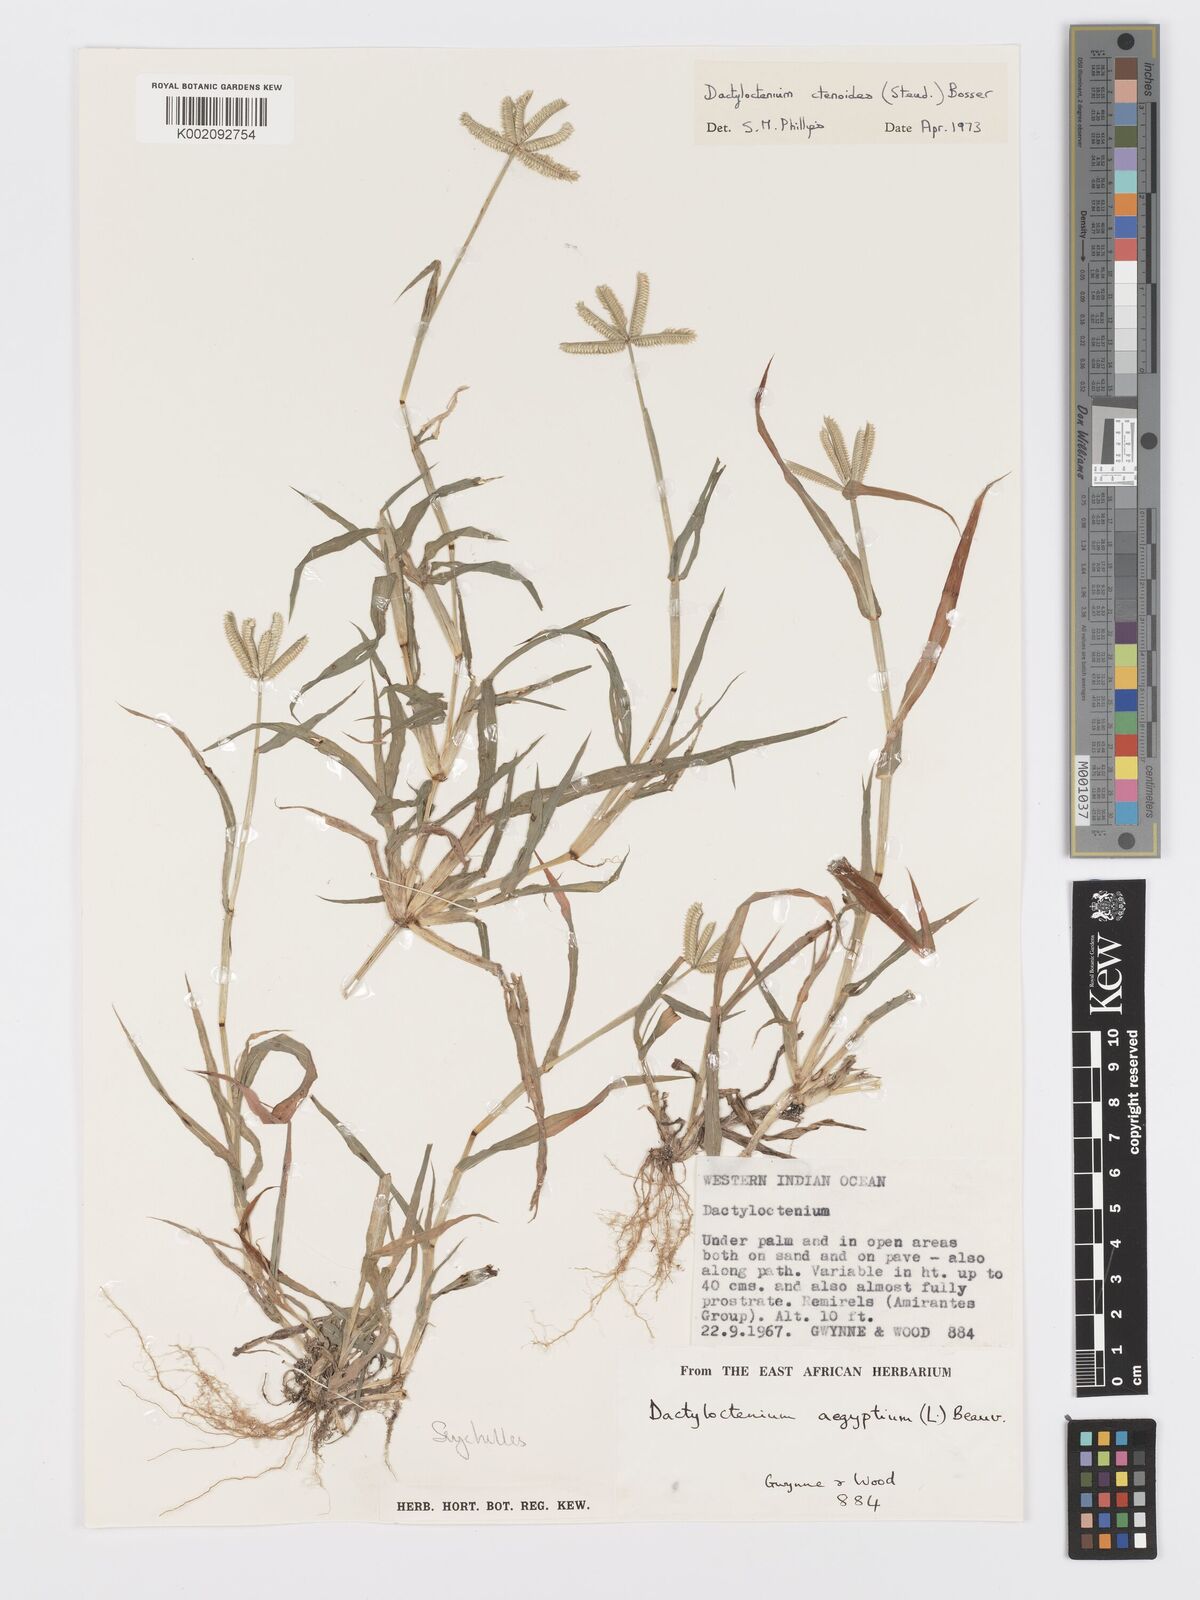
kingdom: Plantae
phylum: Tracheophyta
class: Liliopsida
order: Poales
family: Poaceae
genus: Dactyloctenium
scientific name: Dactyloctenium ctenoides
